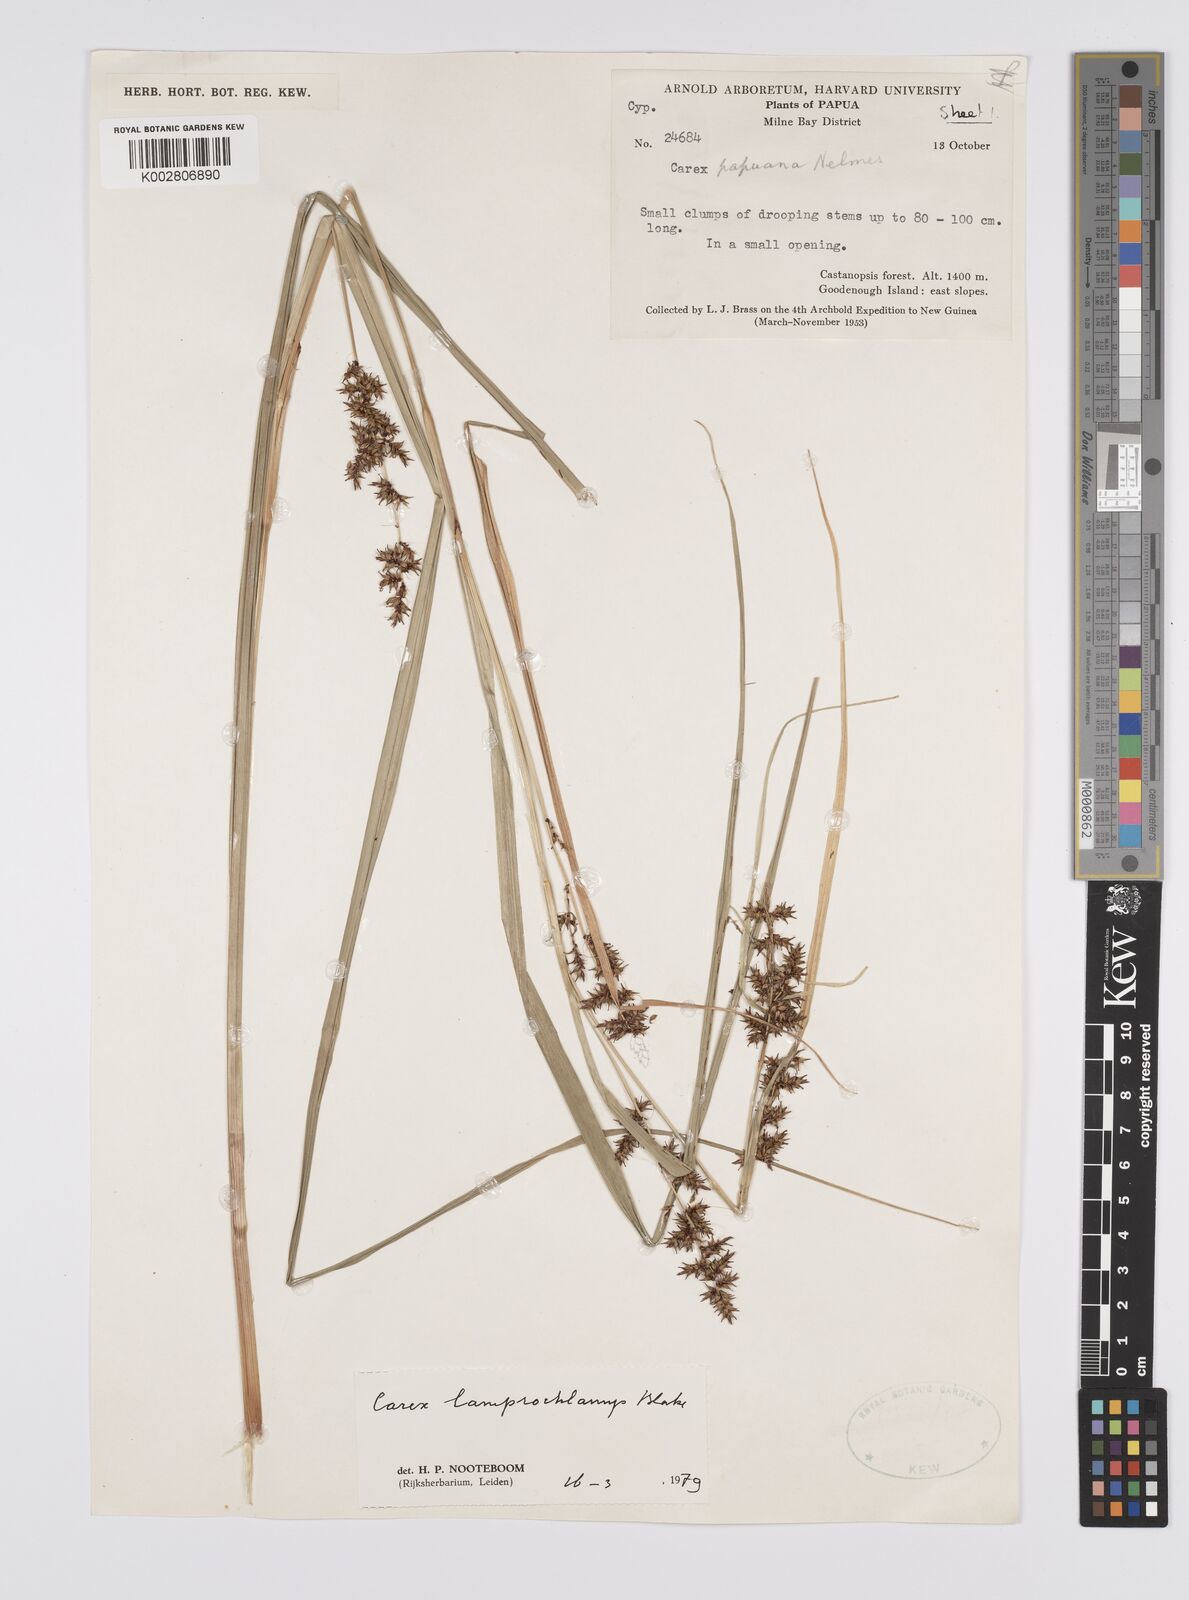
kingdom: Plantae
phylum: Tracheophyta
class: Liliopsida
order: Poales
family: Cyperaceae
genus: Carex
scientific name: Carex lamprochlamys
